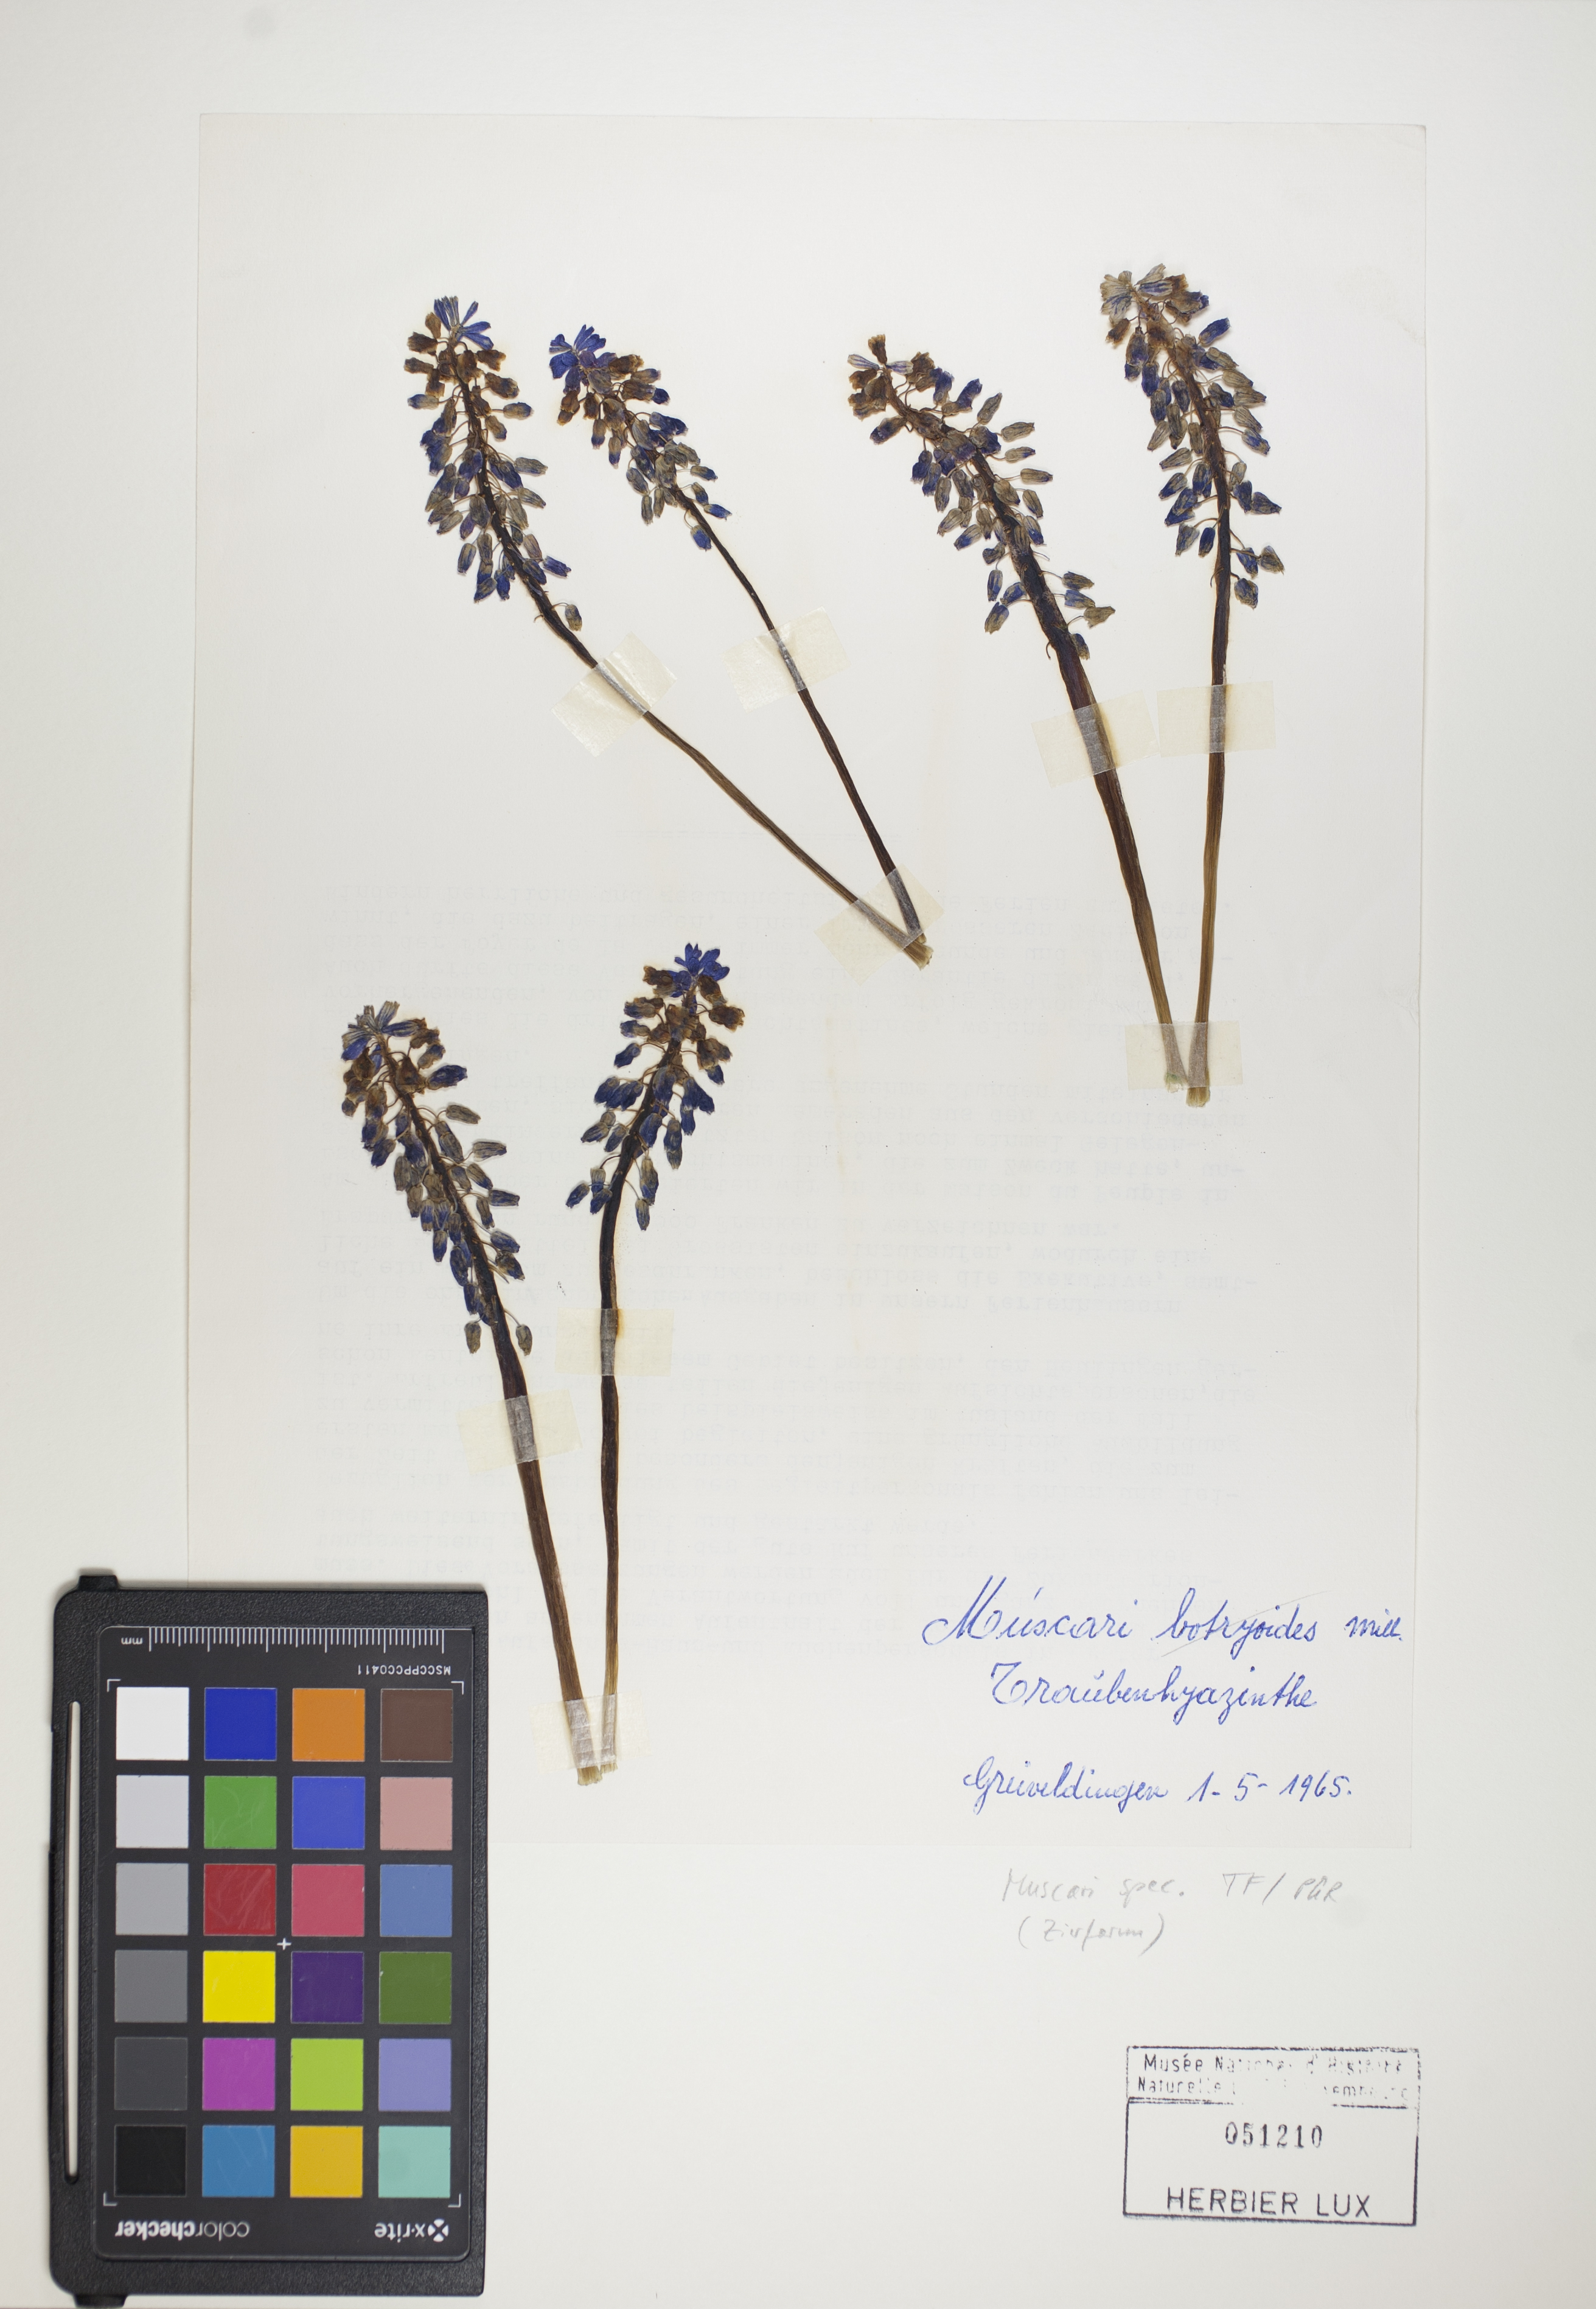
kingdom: Plantae
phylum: Tracheophyta
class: Liliopsida
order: Asparagales
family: Asparagaceae
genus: Muscari
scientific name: Muscari
